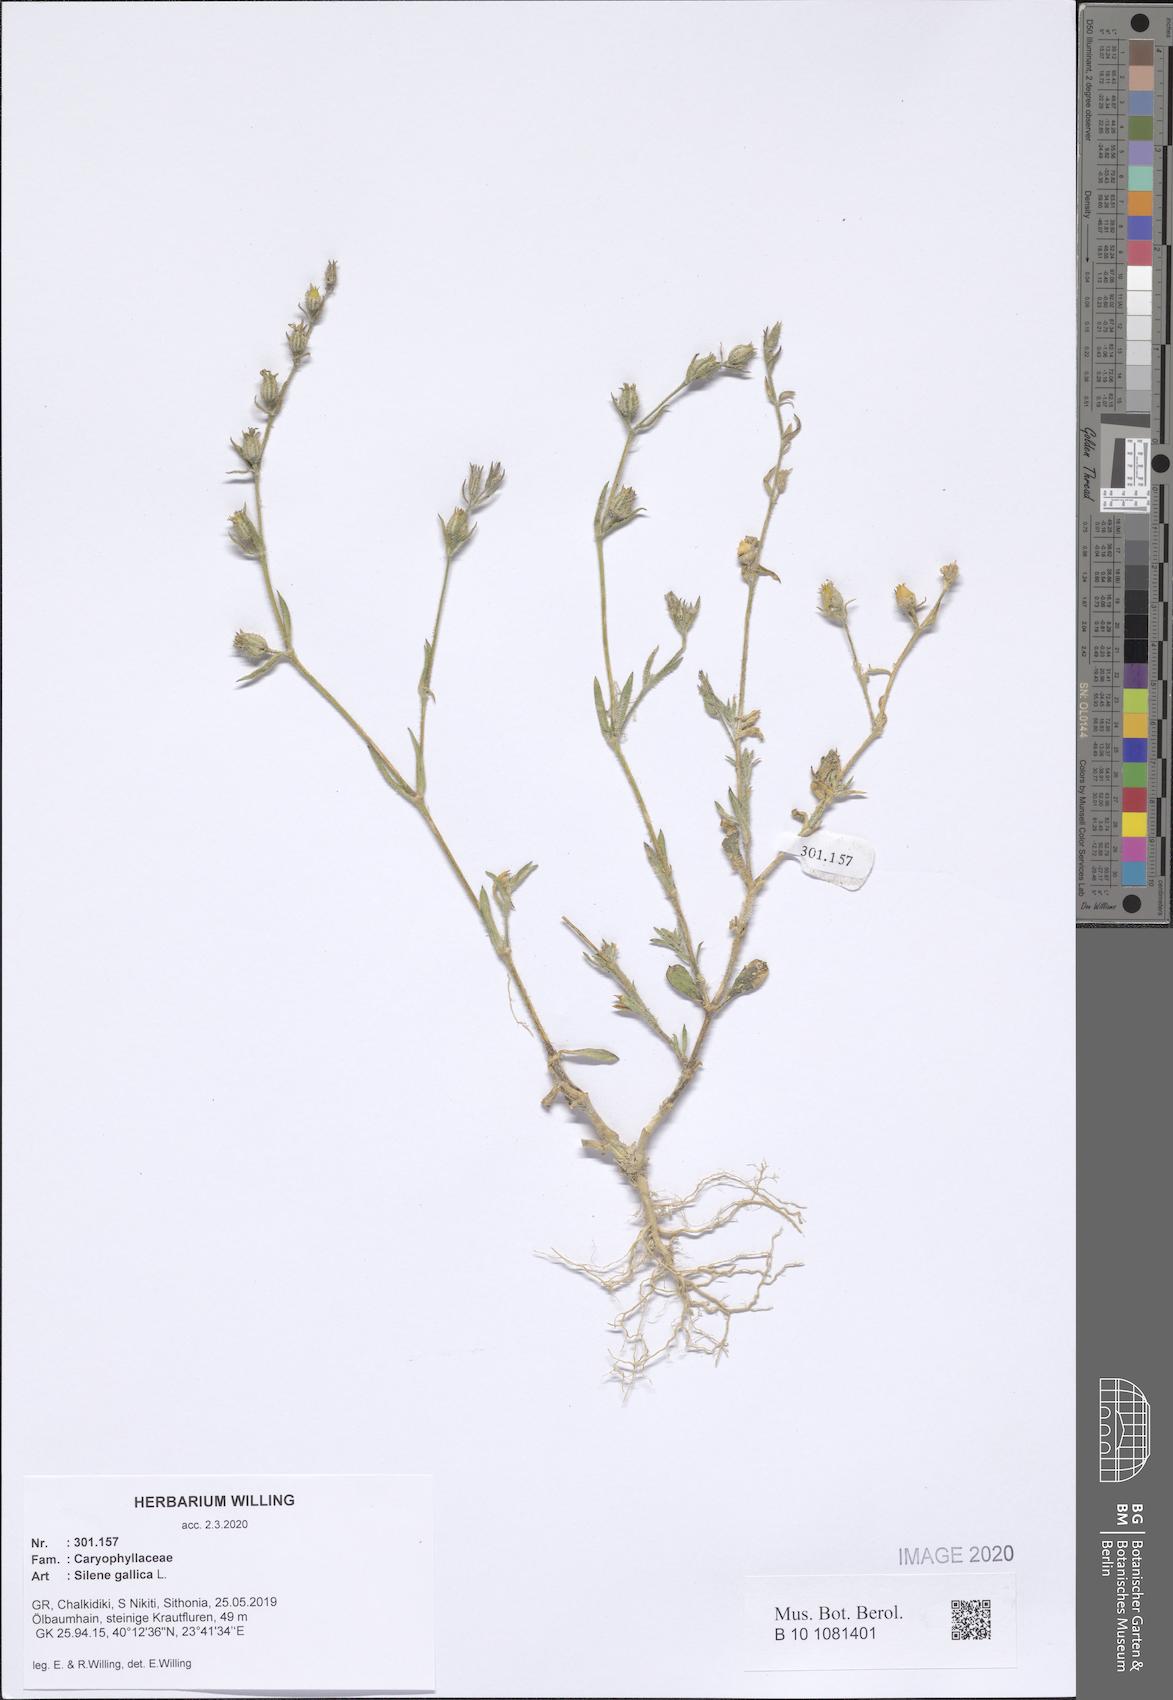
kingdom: Plantae
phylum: Tracheophyta
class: Magnoliopsida
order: Caryophyllales
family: Caryophyllaceae
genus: Silene
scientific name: Silene gallica
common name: Small-flowered catchfly
